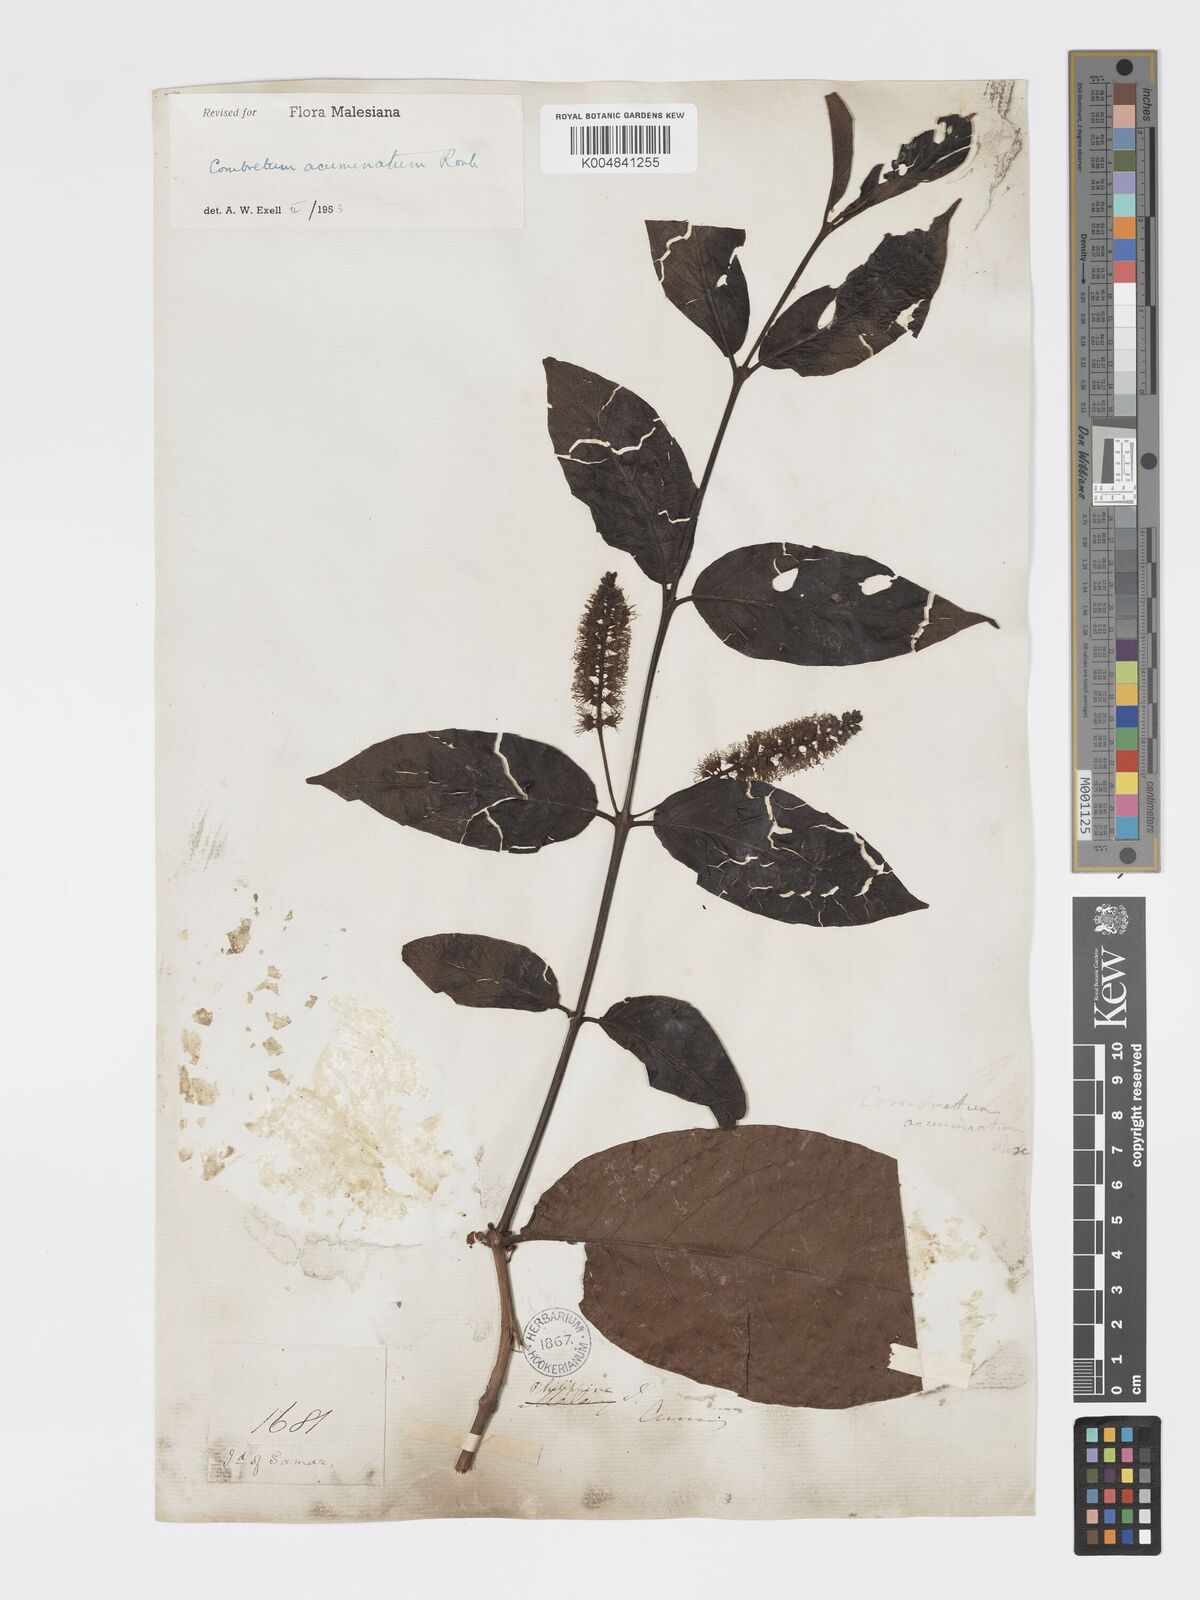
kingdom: Plantae
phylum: Tracheophyta
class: Magnoliopsida
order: Myrtales
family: Combretaceae
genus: Combretum
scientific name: Combretum acuminatum
